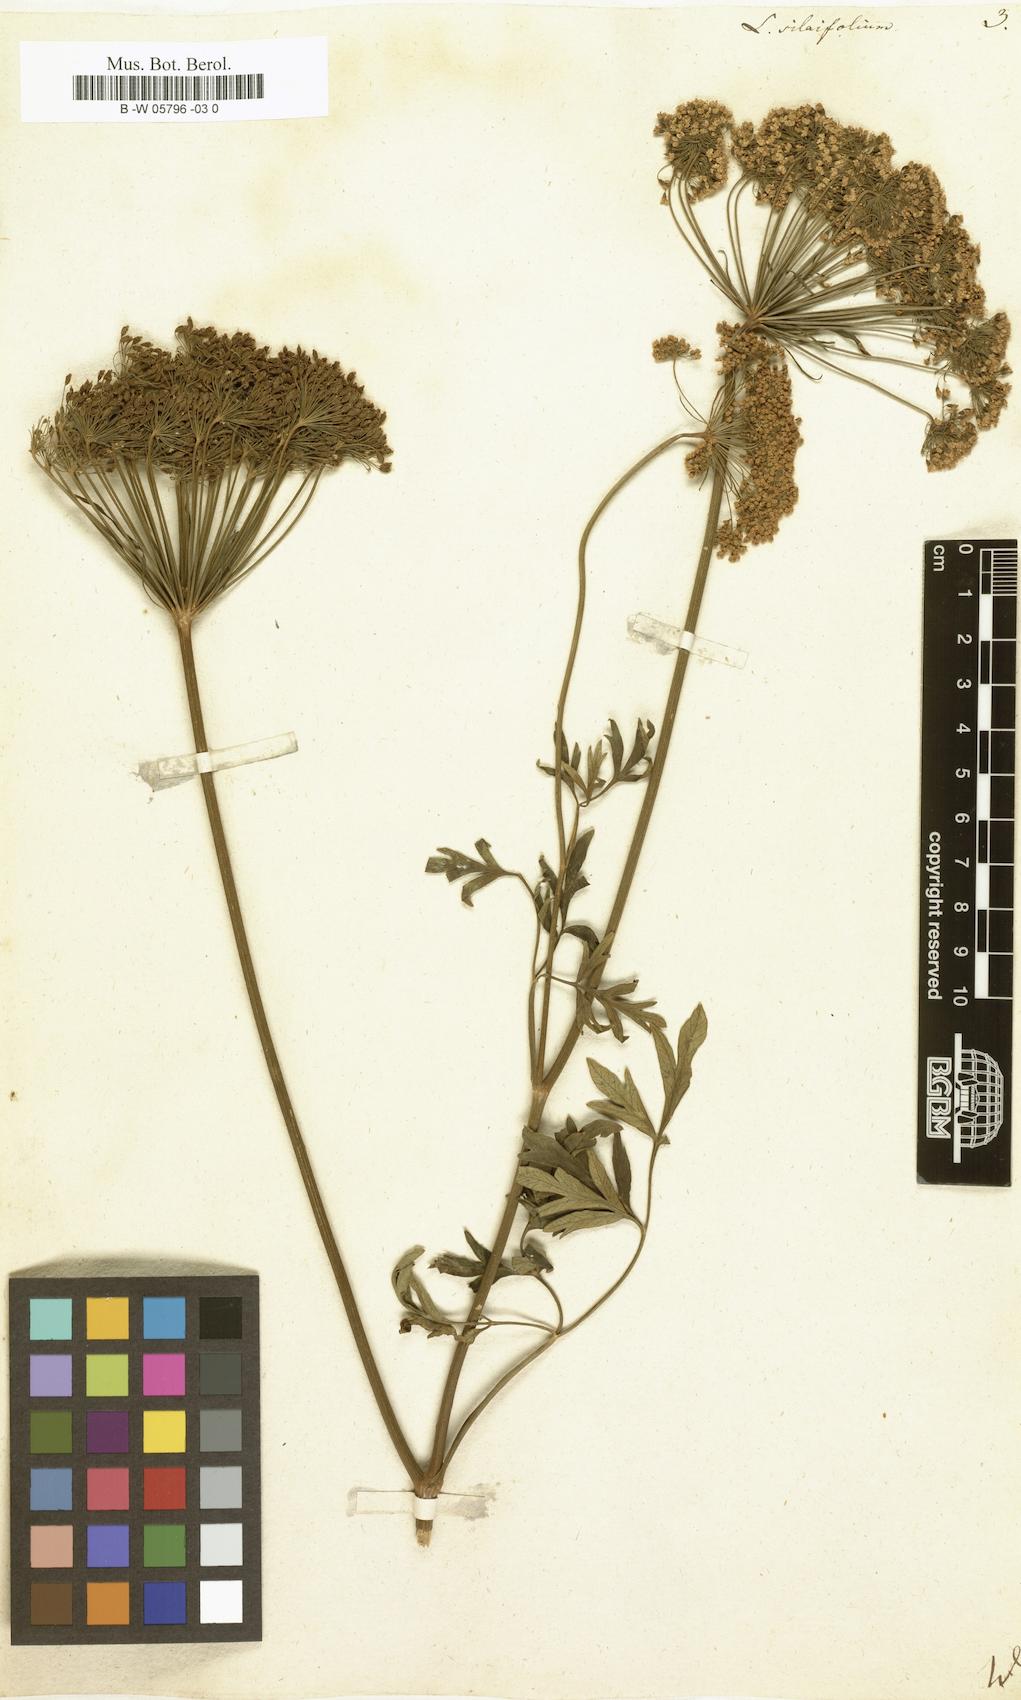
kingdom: Plantae
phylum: Tracheophyta
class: Magnoliopsida
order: Apiales
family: Apiaceae
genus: Katapsuxis
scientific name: Katapsuxis silaifolia
